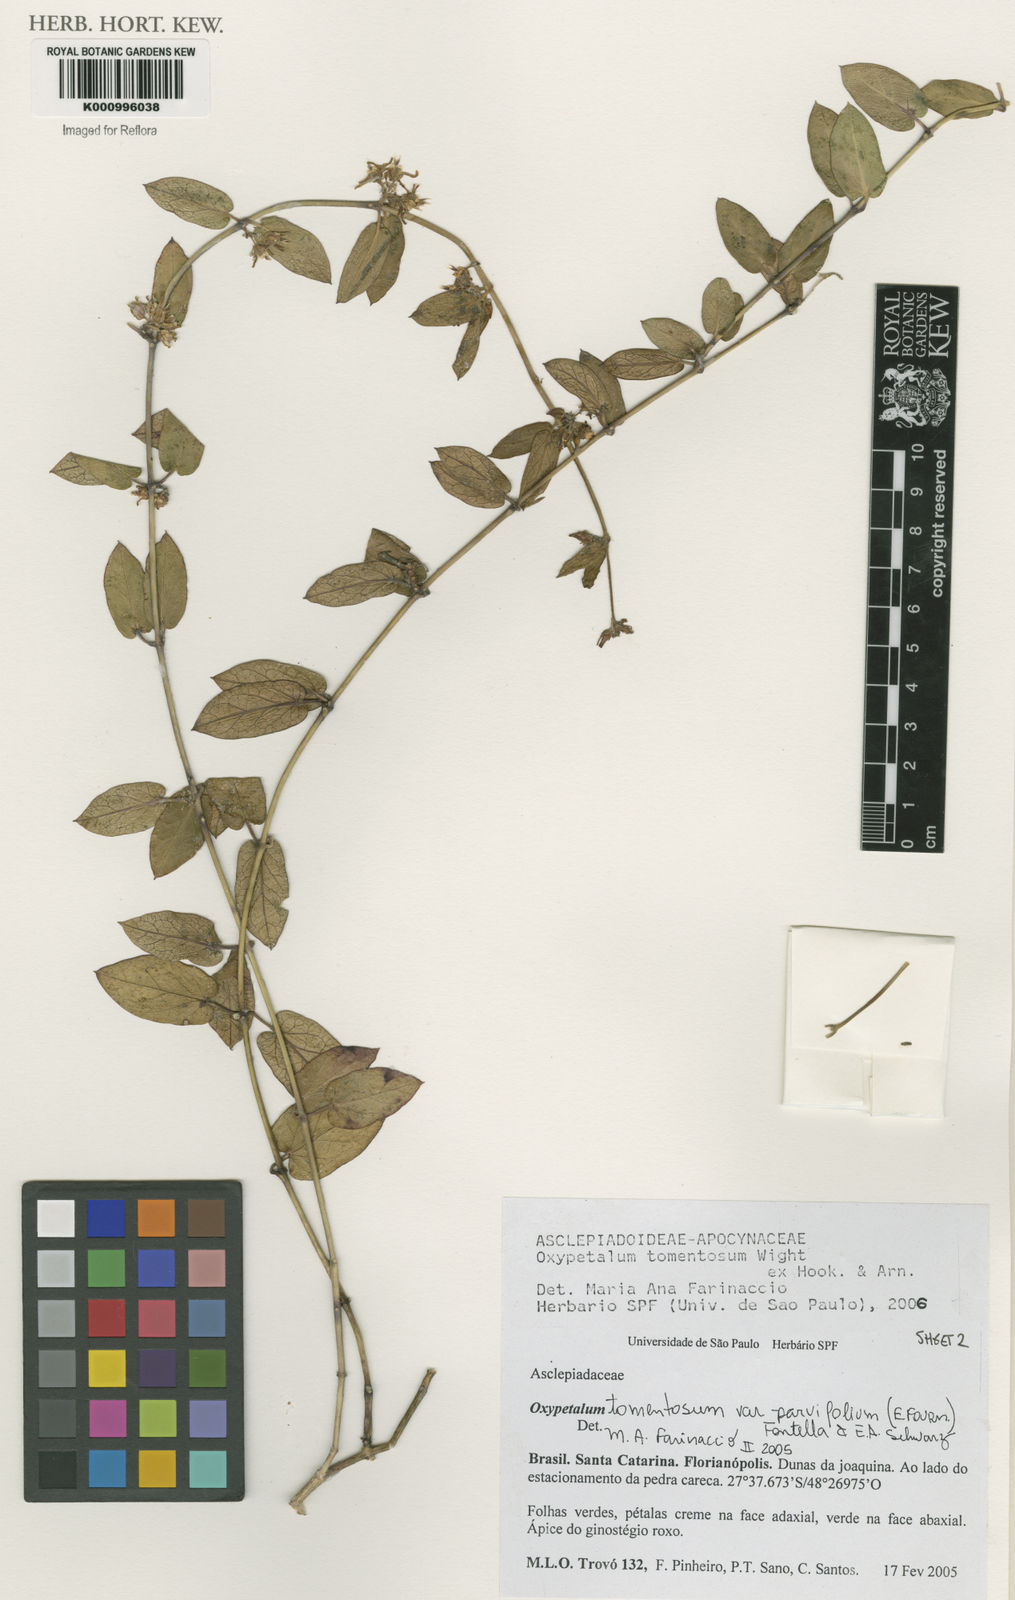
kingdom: Plantae
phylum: Tracheophyta
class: Magnoliopsida
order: Gentianales
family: Apocynaceae
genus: Oxypetalum
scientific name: Oxypetalum tomentosum
